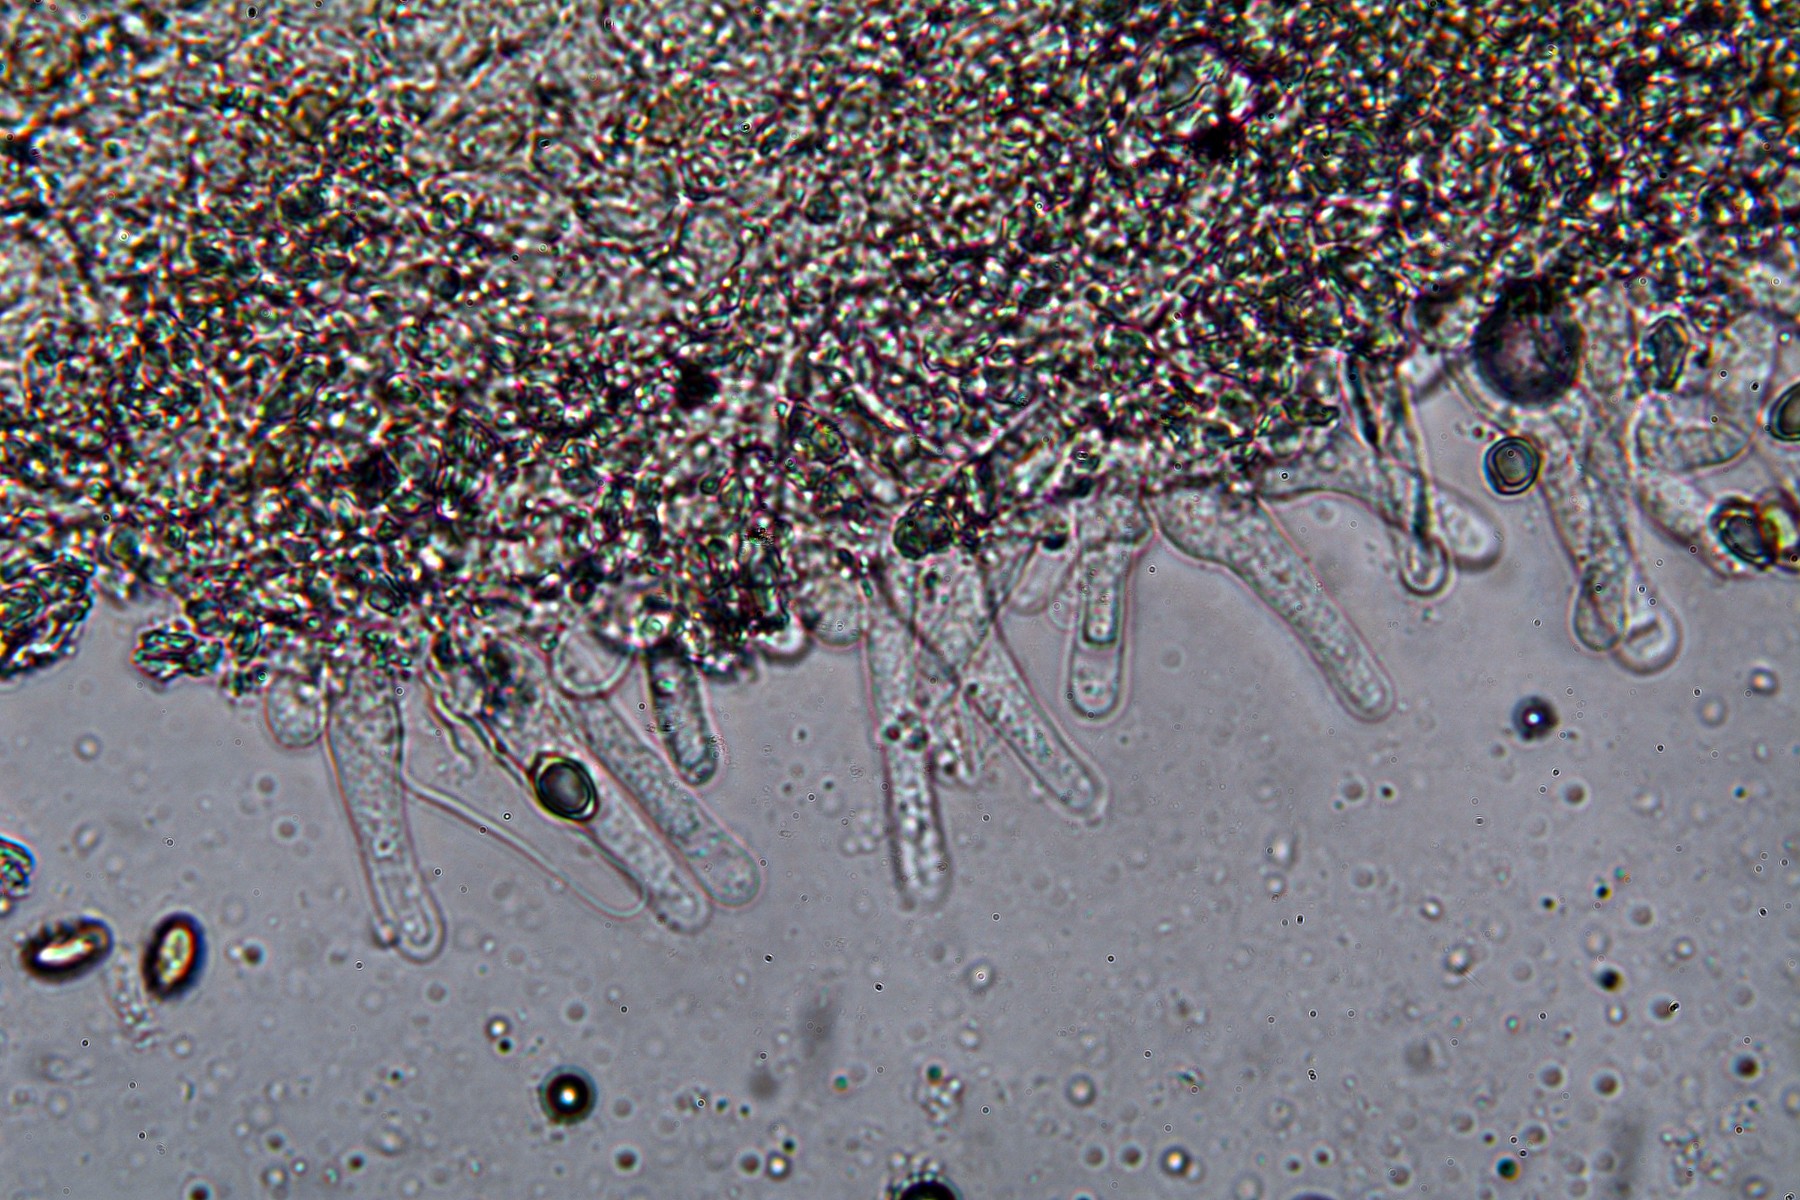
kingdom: Fungi
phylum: Basidiomycota
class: Agaricomycetes
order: Agaricales
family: Hymenogastraceae
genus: Hebeloma
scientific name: Hebeloma mesophaeum
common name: lerbrun tåreblad
